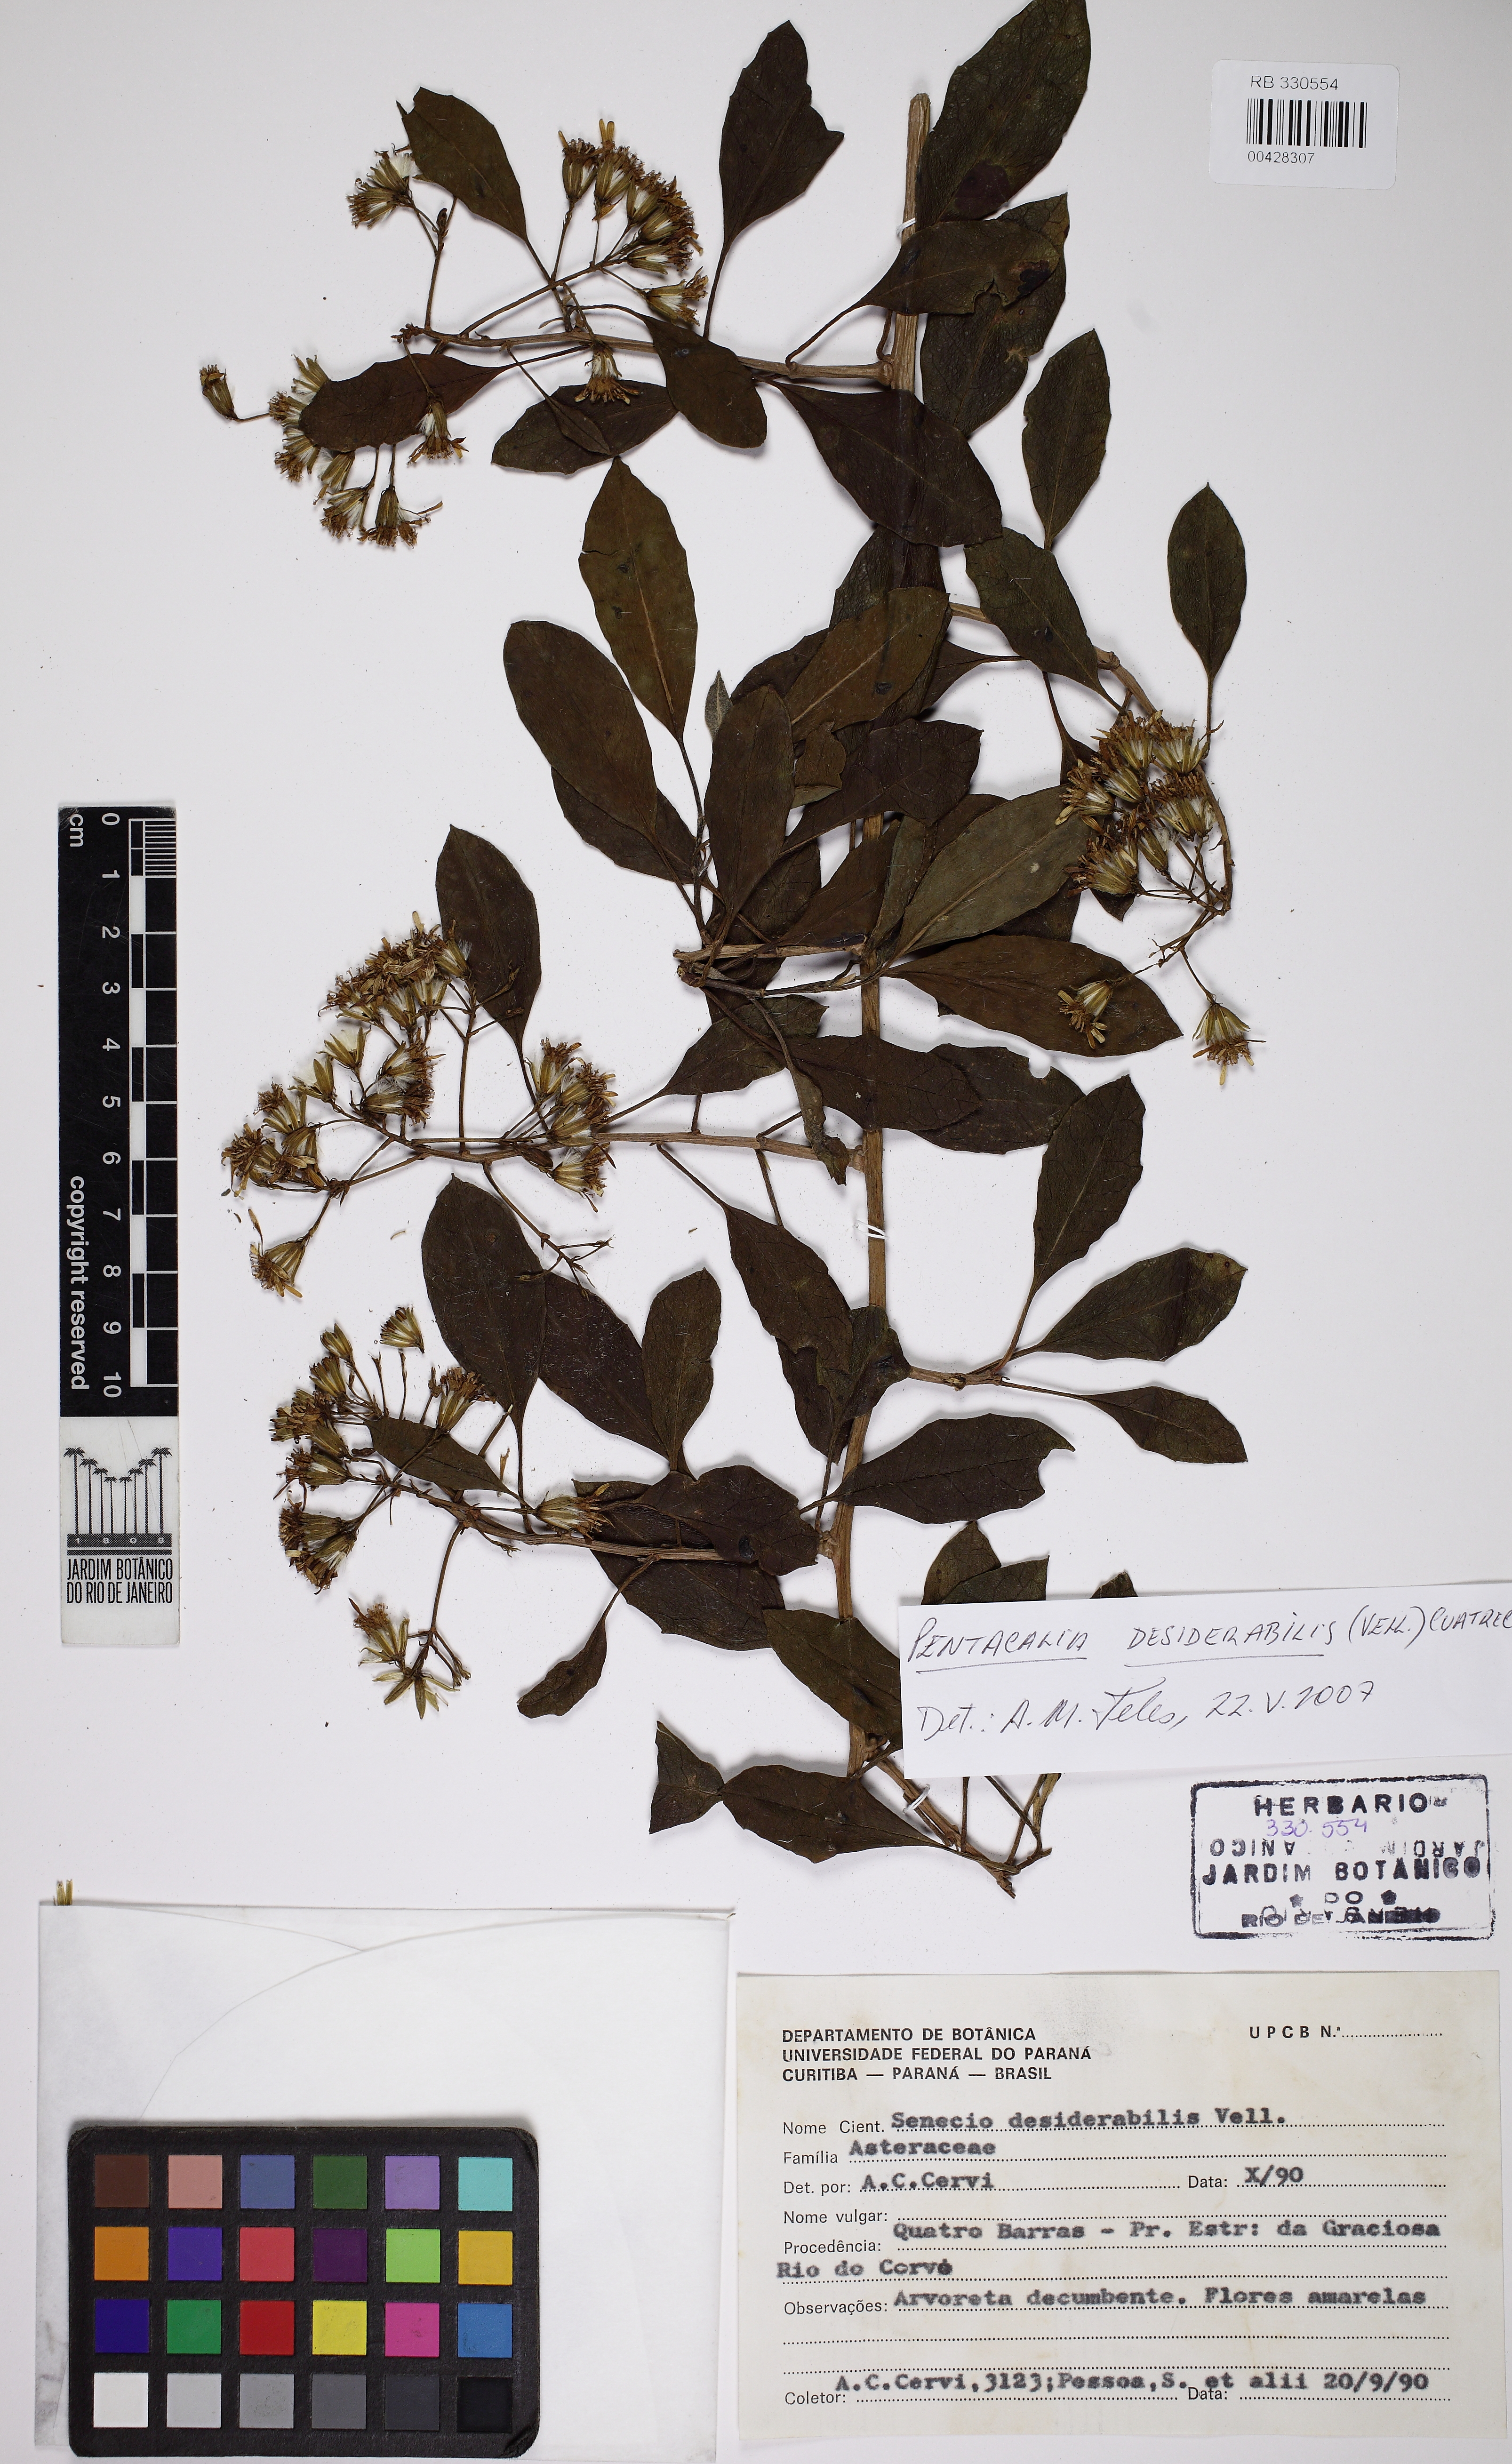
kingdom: Plantae
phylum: Tracheophyta
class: Magnoliopsida
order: Asterales
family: Asteraceae
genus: Pentacalia
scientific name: Pentacalia desiderabilis
